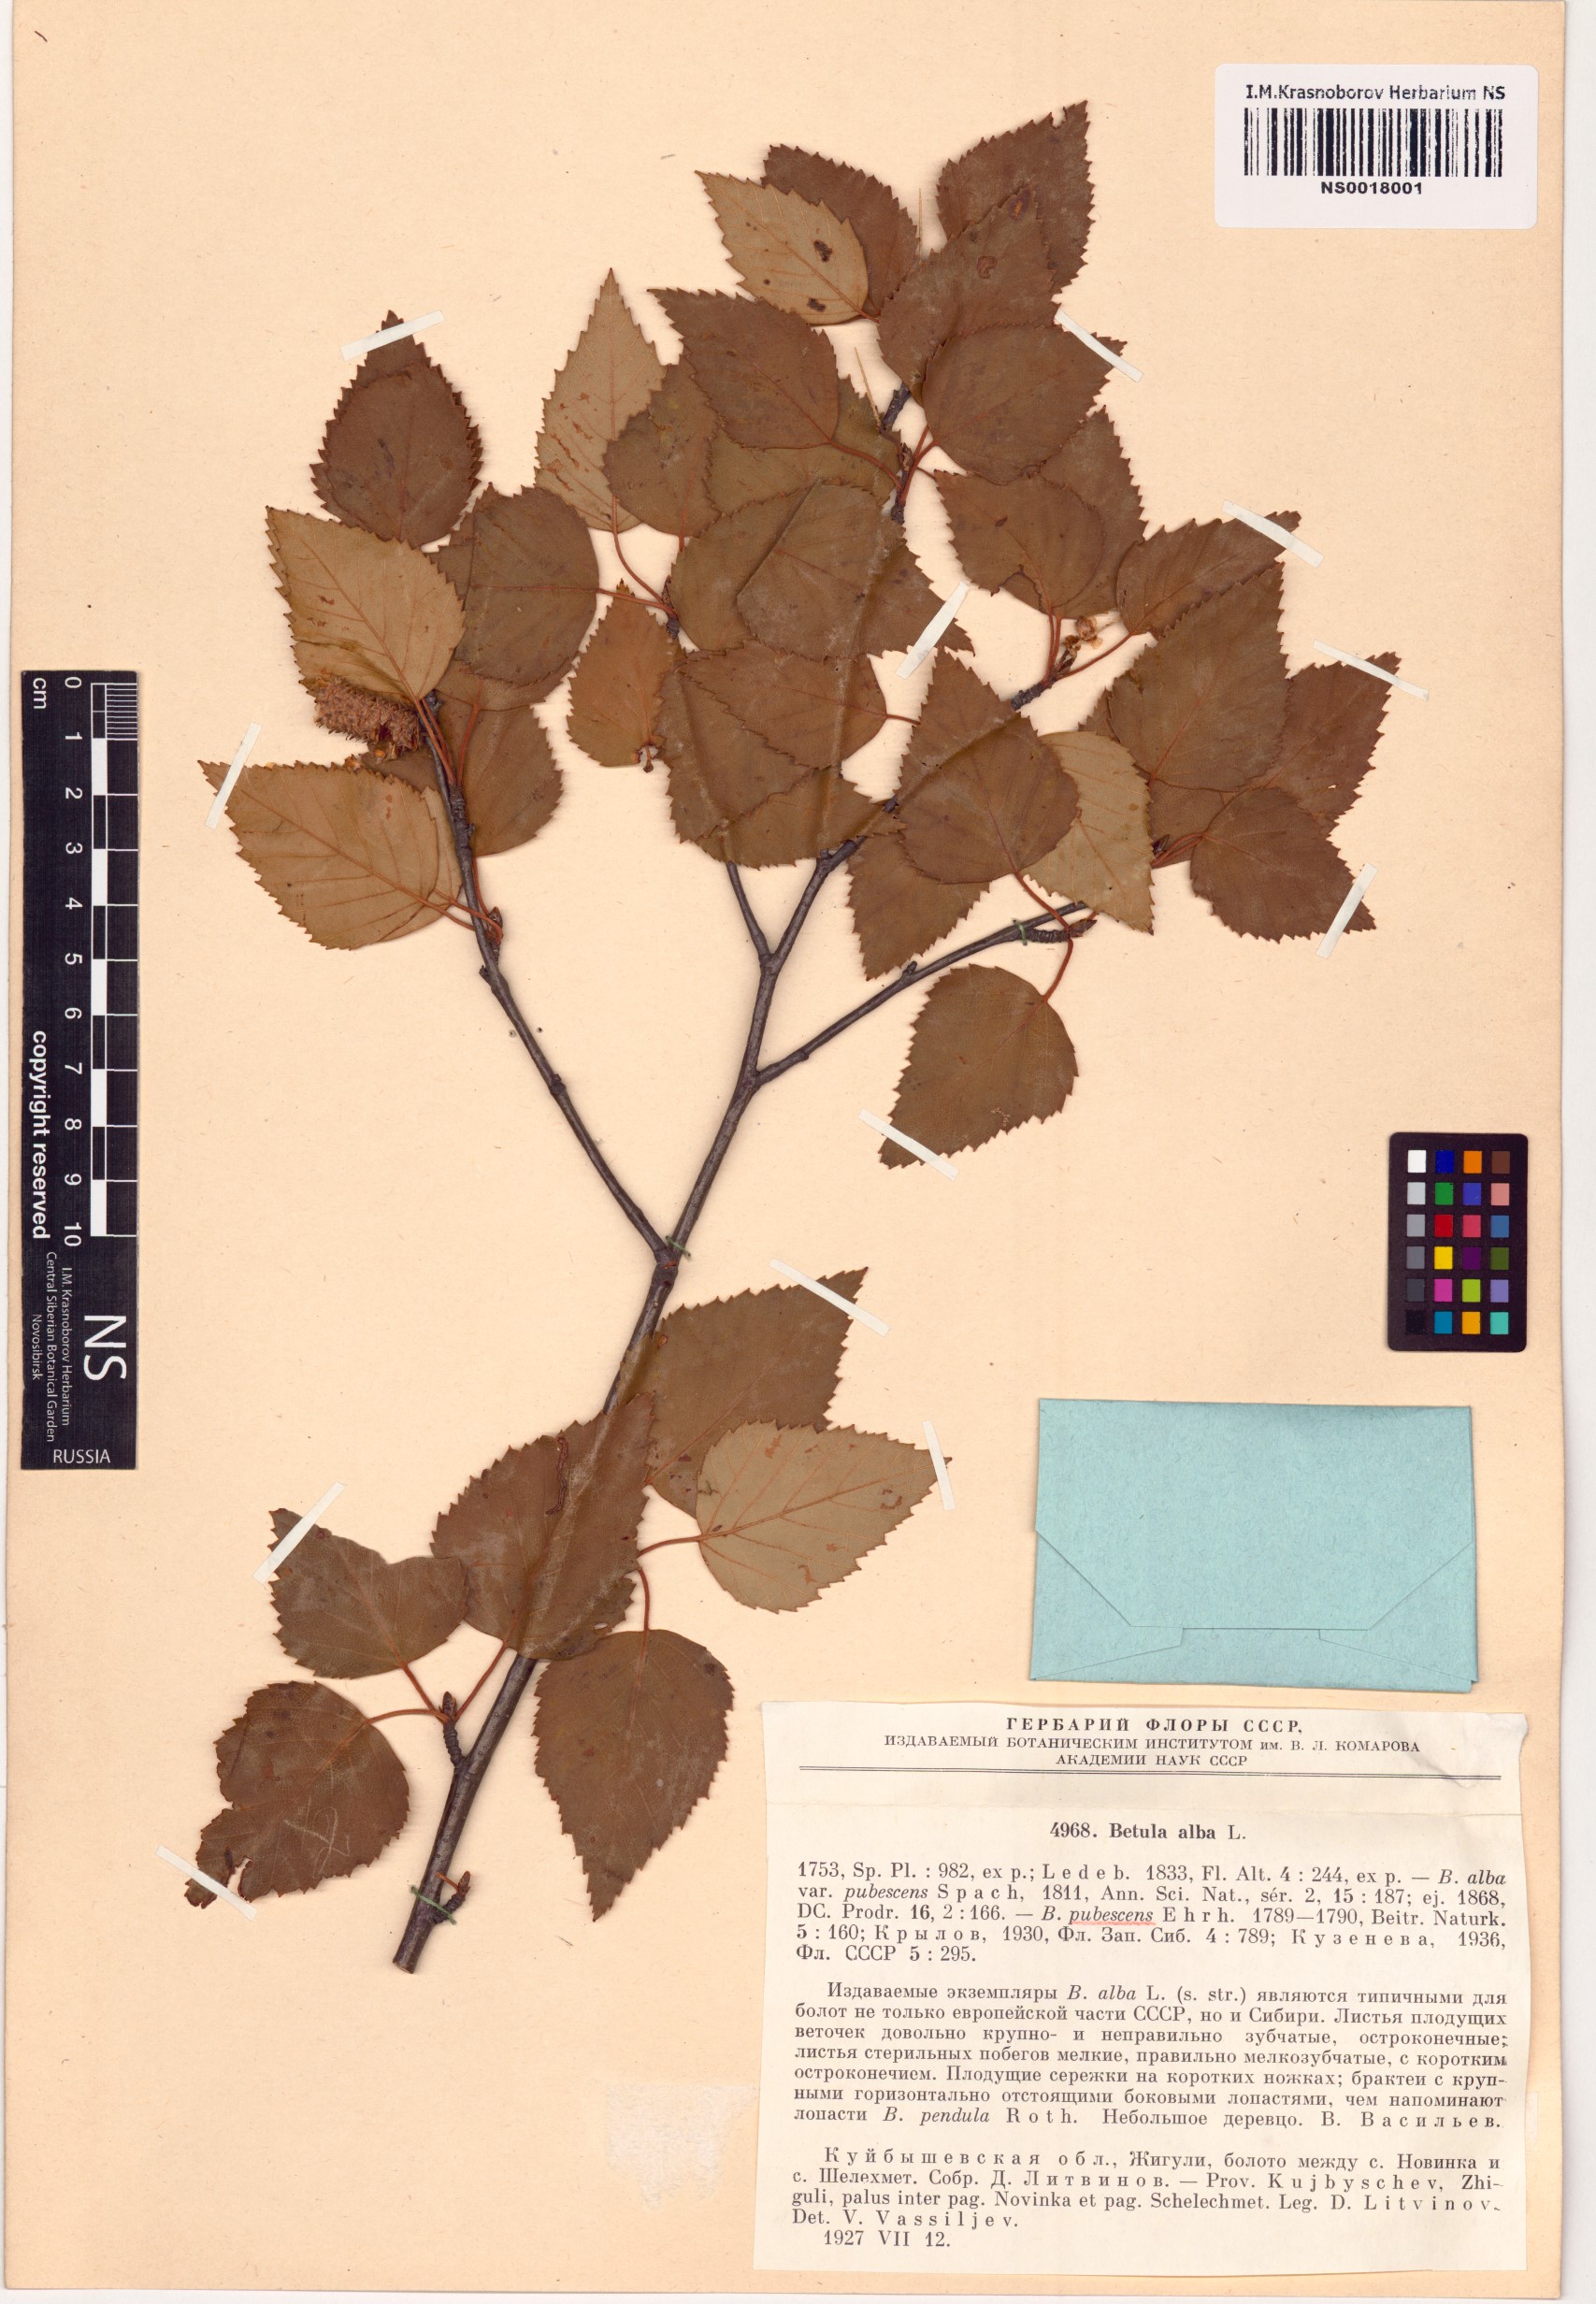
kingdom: Plantae
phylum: Tracheophyta
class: Magnoliopsida
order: Fagales
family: Betulaceae
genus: Betula
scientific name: Betula pubescens
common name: Downy birch
